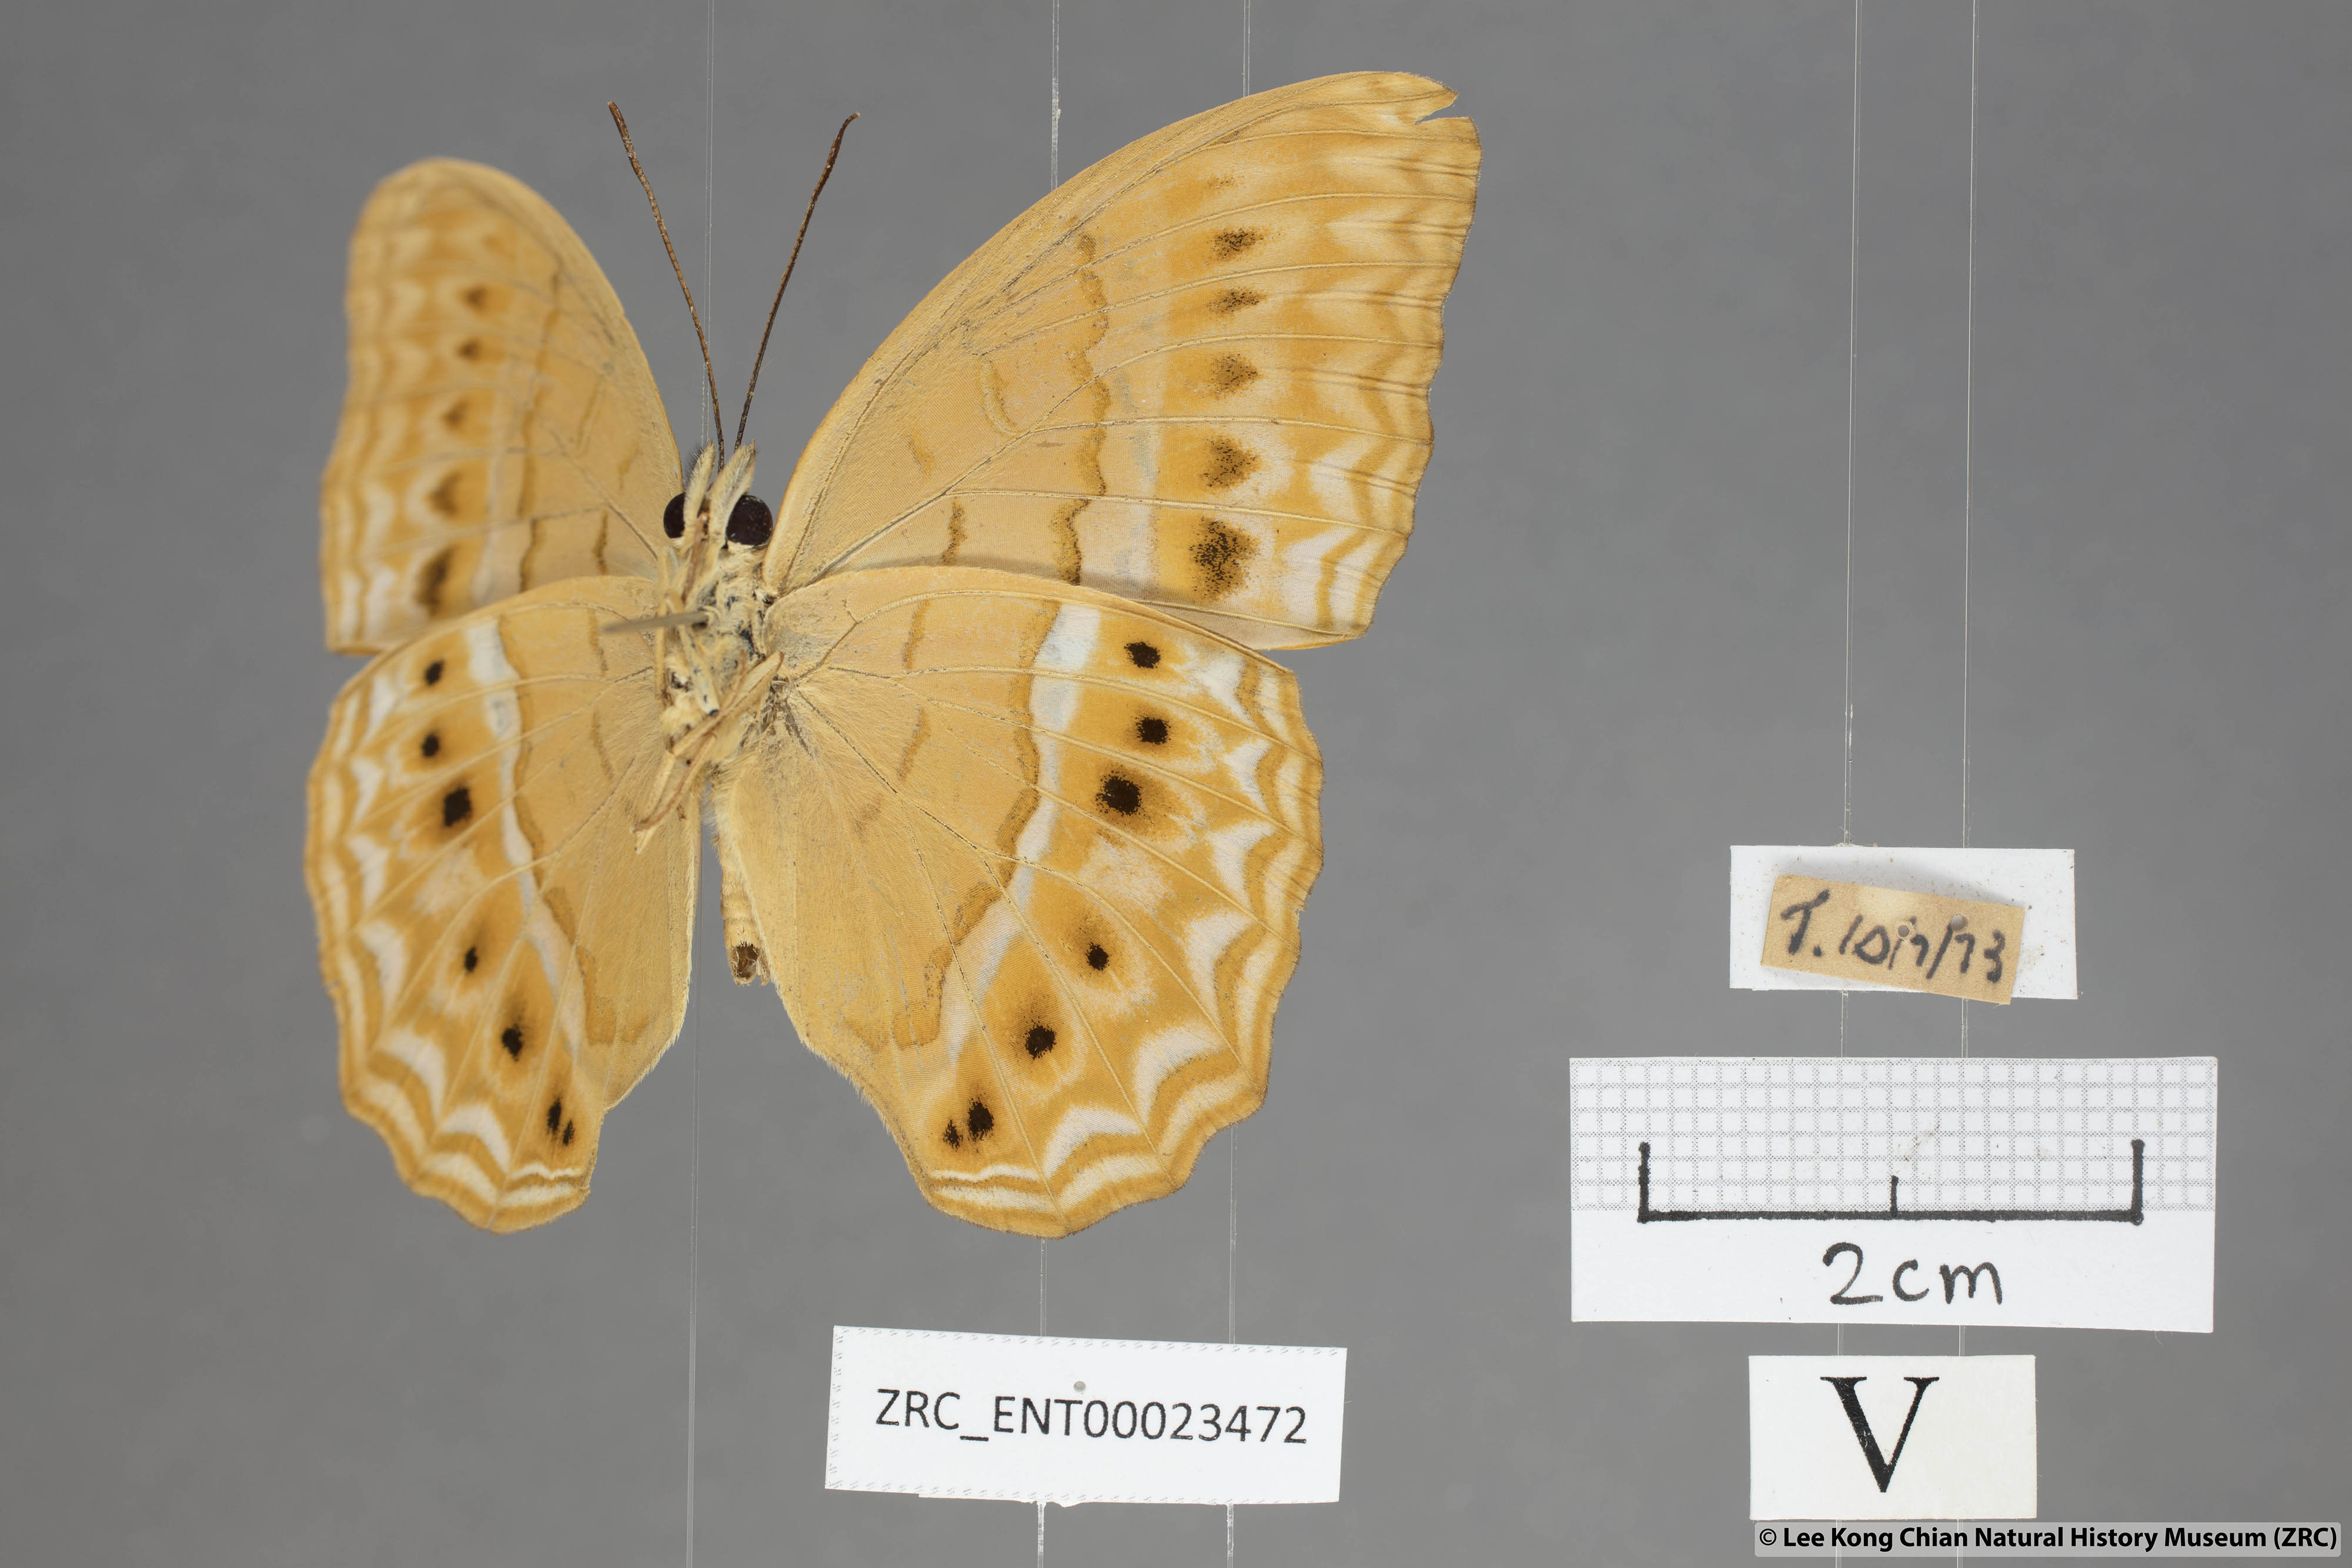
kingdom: Animalia
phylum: Arthropoda
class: Insecta
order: Lepidoptera
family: Nymphalidae
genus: Cirrochroa
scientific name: Cirrochroa tyche
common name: Common yeoman
